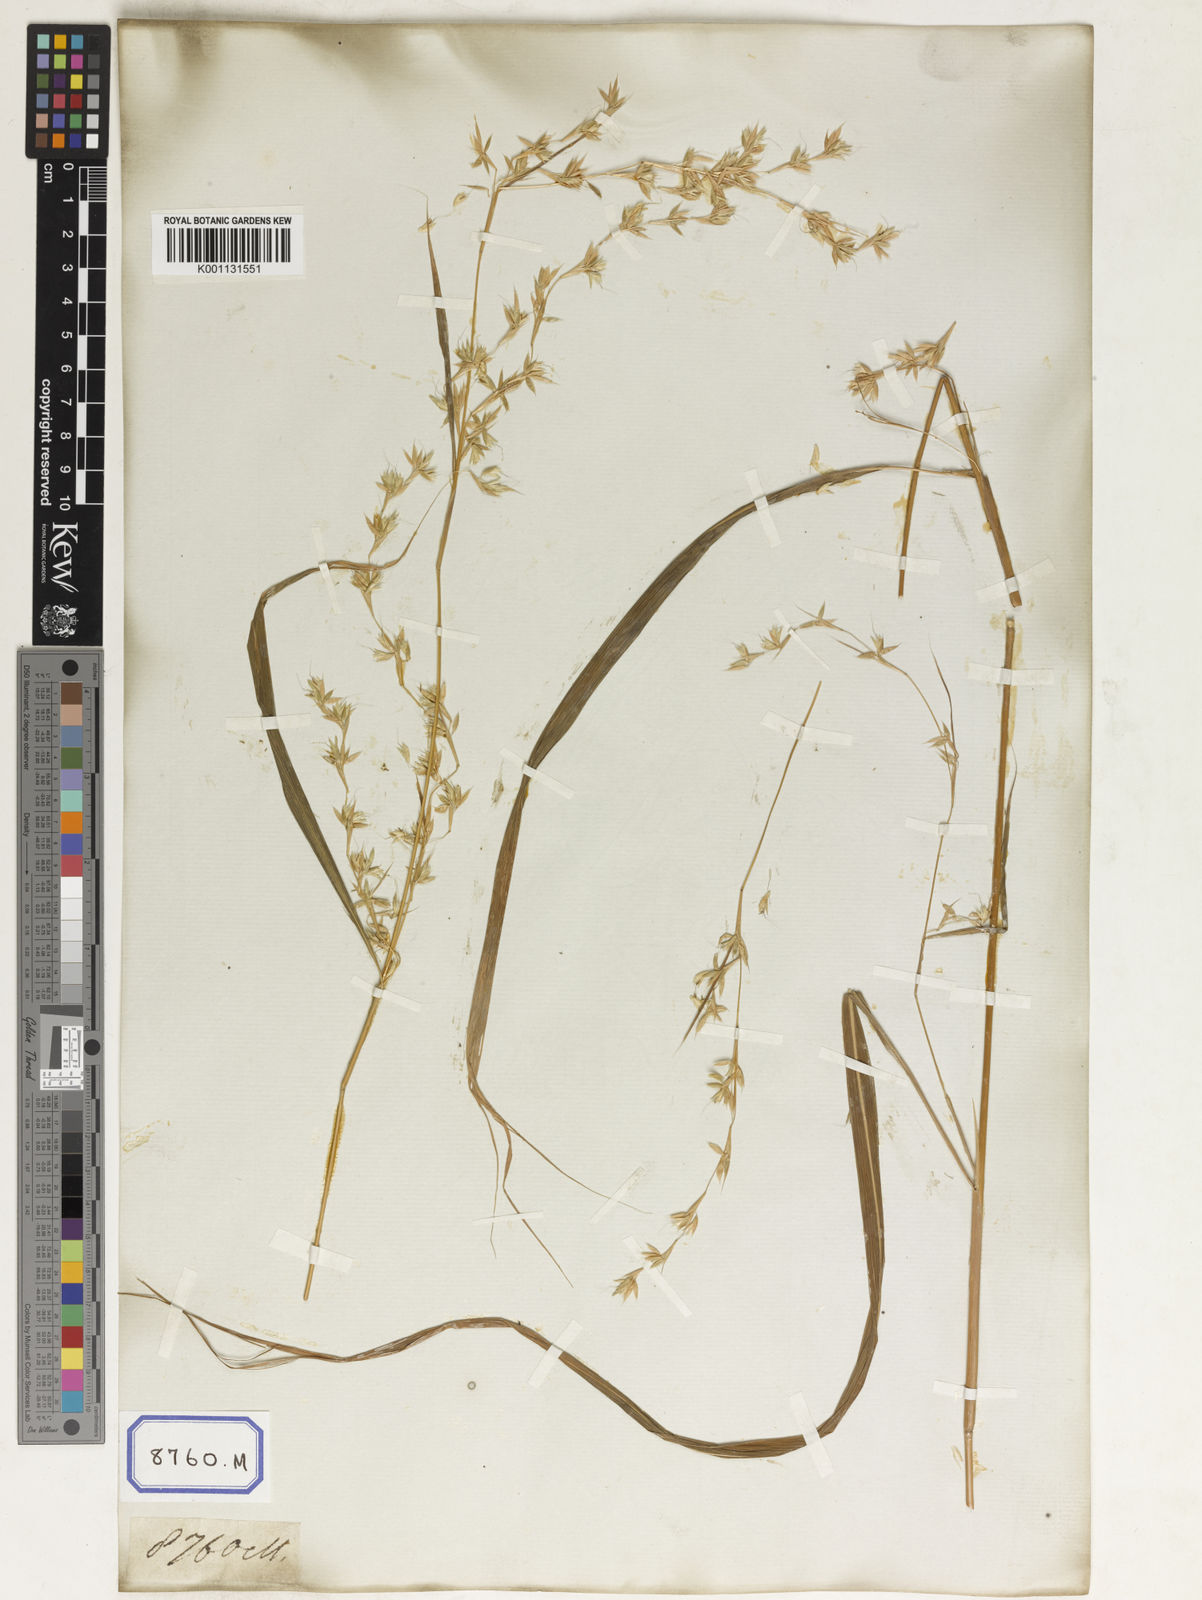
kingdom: Plantae
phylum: Tracheophyta
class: Liliopsida
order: Poales
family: Poaceae
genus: Apluda
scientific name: Apluda
